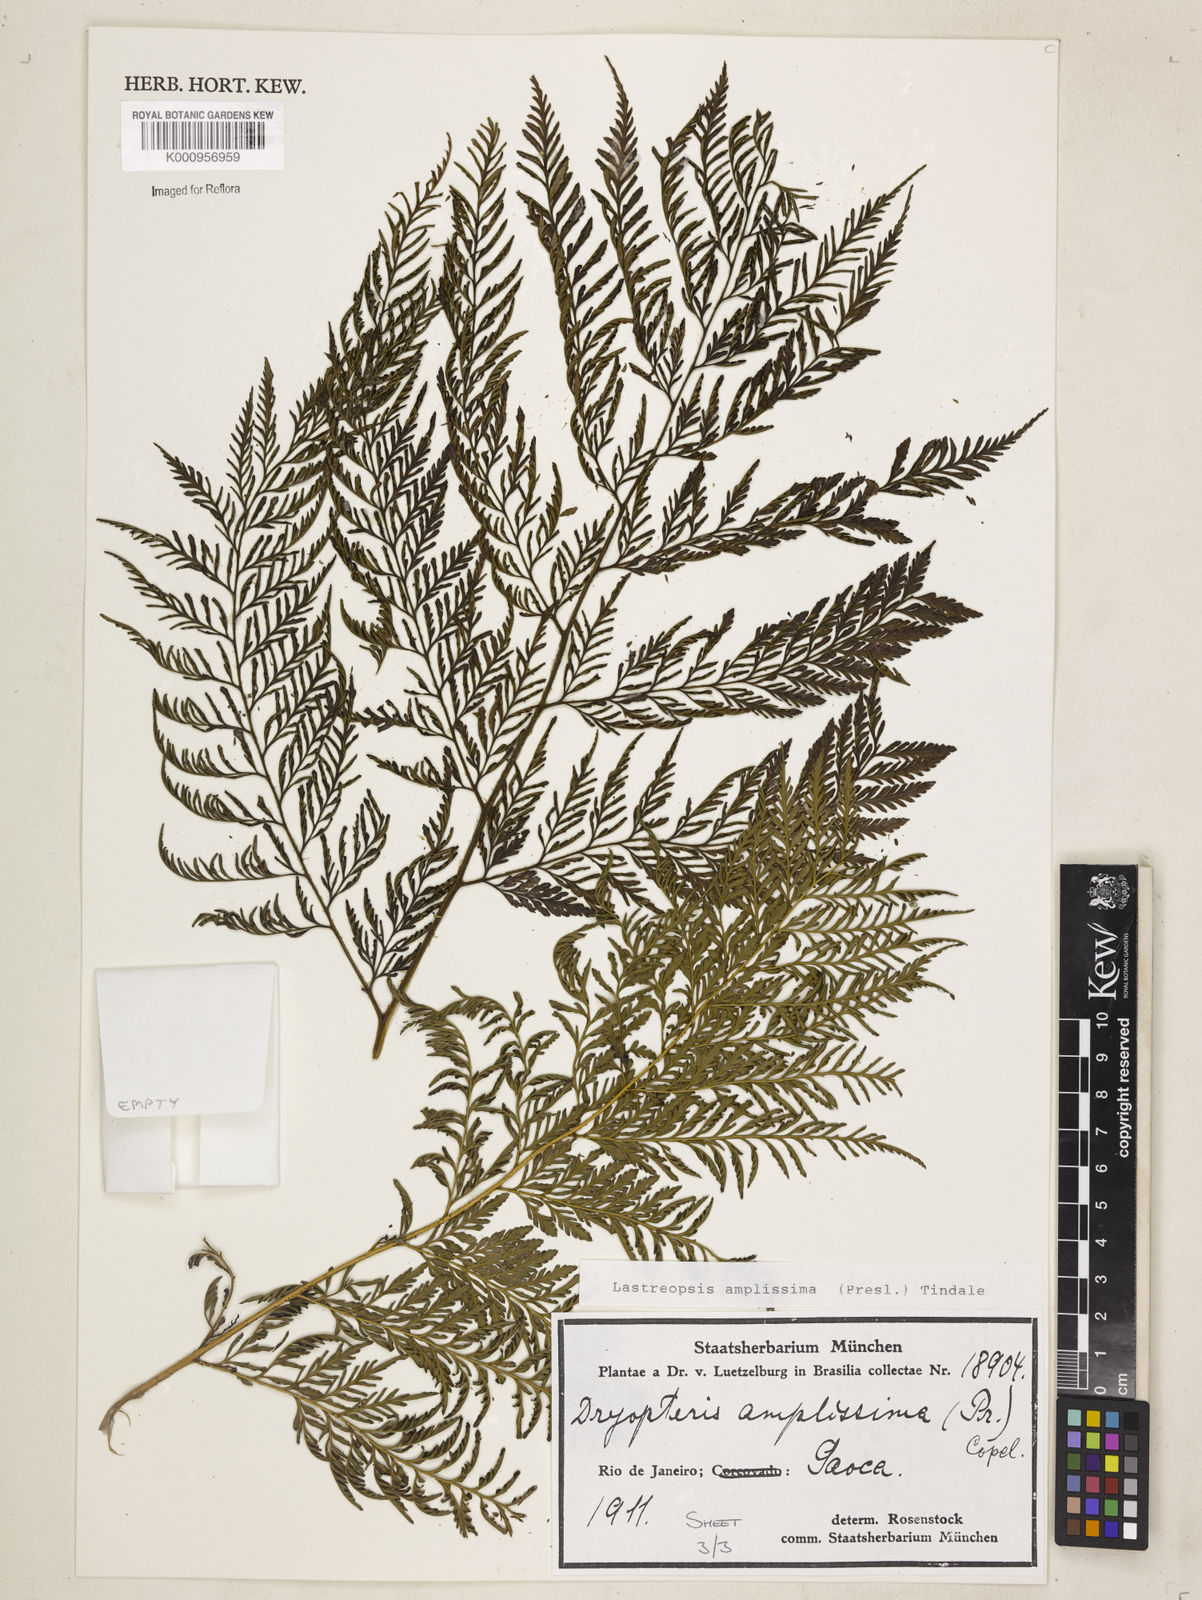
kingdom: Plantae
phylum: Tracheophyta
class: Polypodiopsida
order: Polypodiales
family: Dryopteridaceae
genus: Lastreopsis
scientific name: Lastreopsis amplissima
